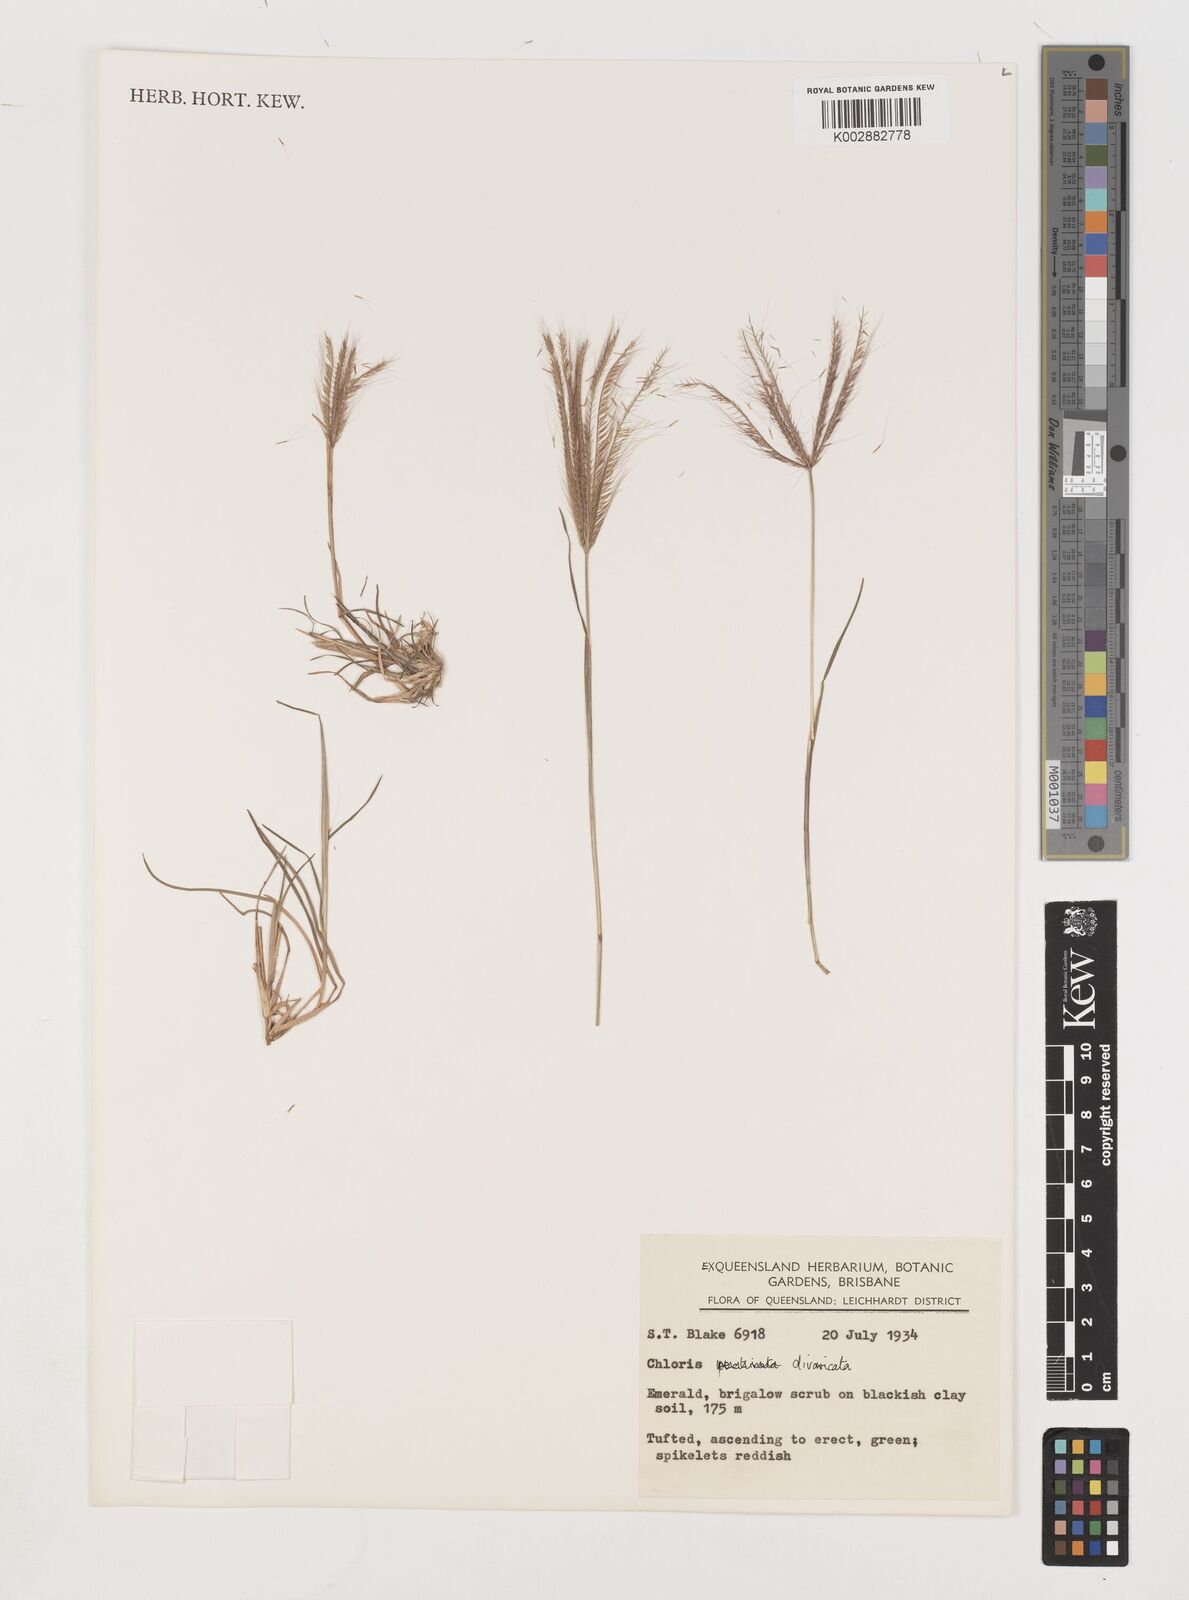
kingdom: Plantae
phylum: Tracheophyta
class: Liliopsida
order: Poales
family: Poaceae
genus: Chloris
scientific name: Chloris divaricata
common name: Spreading windmill grass
